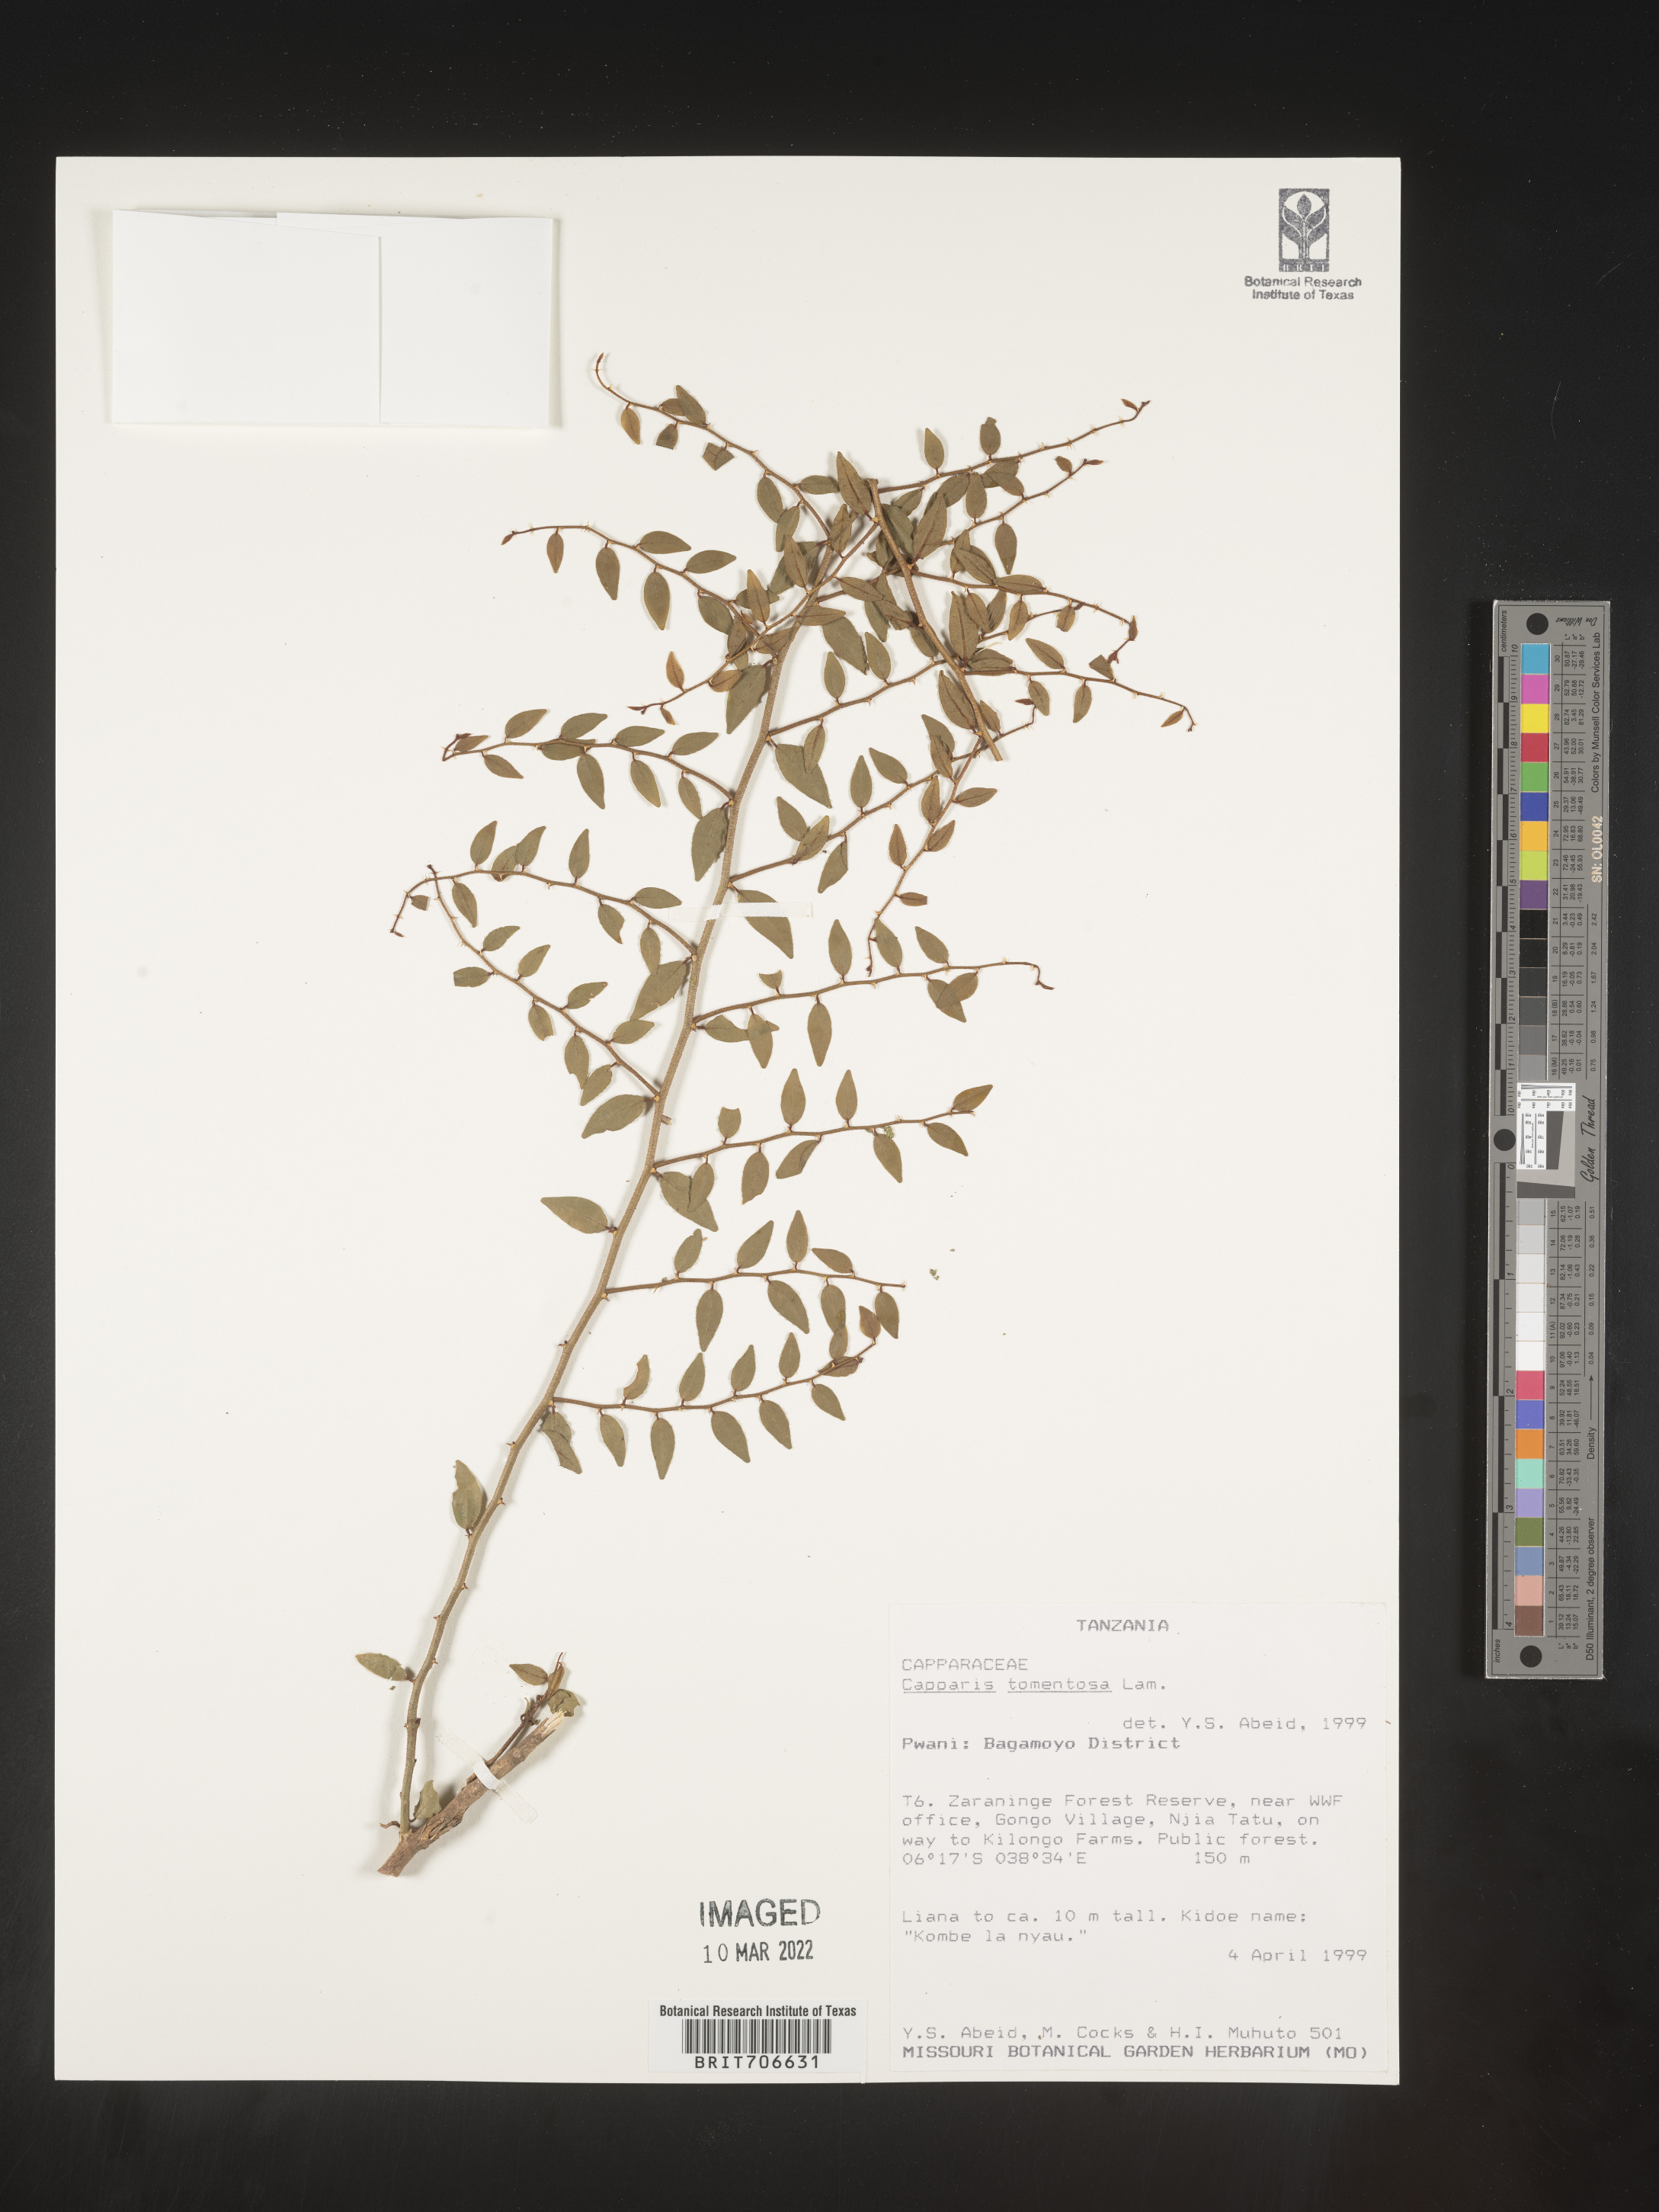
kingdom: Plantae
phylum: Tracheophyta
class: Magnoliopsida
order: Brassicales
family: Capparaceae
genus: Capparis
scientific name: Capparis
